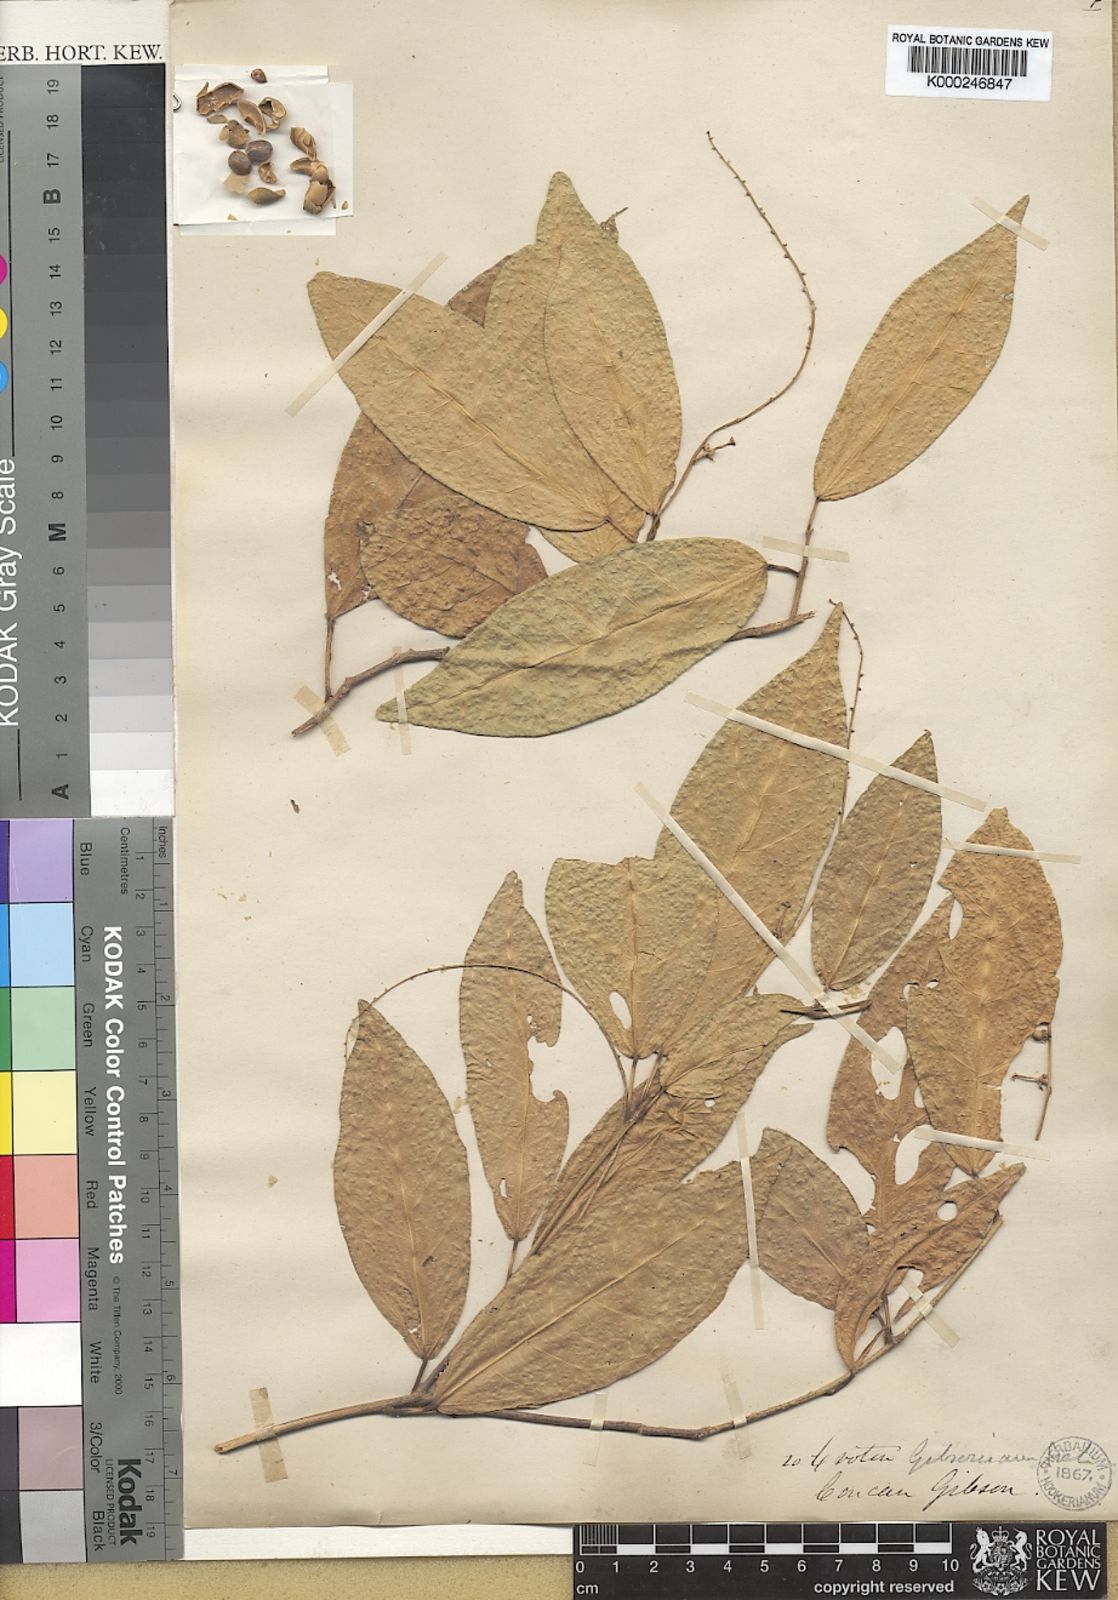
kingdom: Plantae
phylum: Tracheophyta
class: Magnoliopsida
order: Malpighiales
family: Euphorbiaceae
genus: Croton
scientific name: Croton gibsonianus
